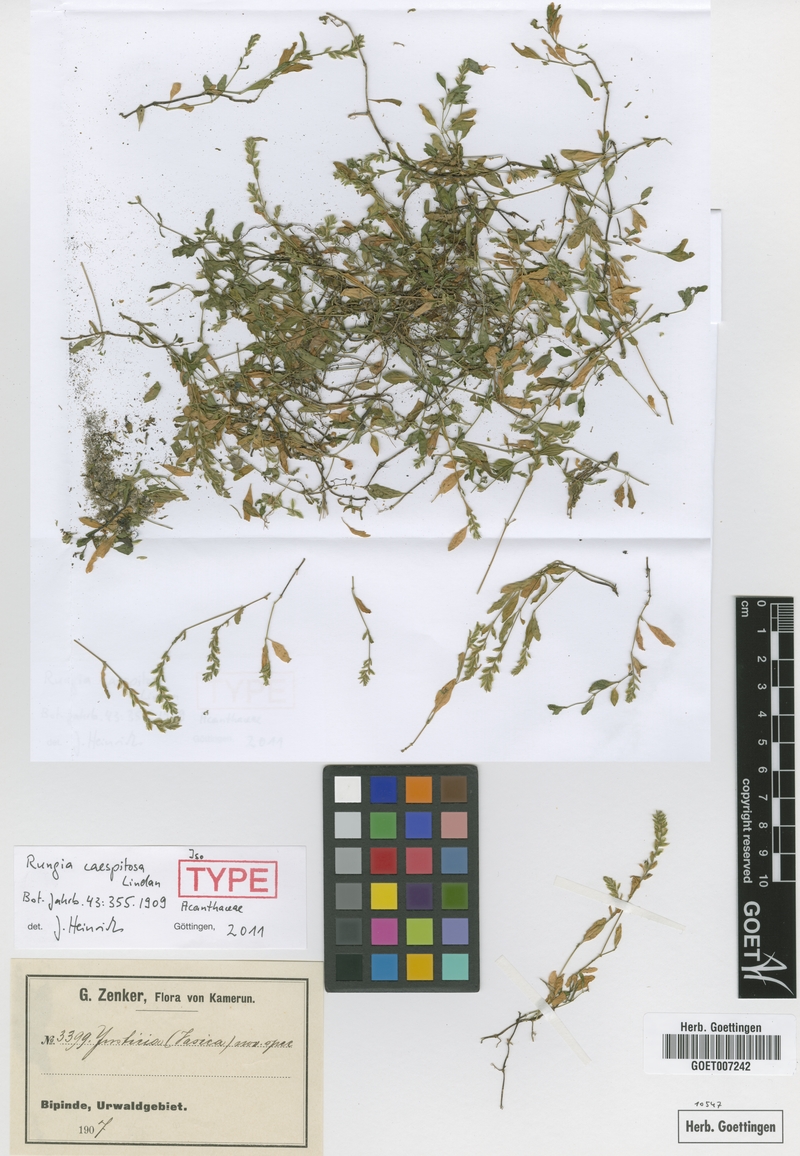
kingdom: Plantae
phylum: Tracheophyta
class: Magnoliopsida
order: Lamiales
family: Acanthaceae
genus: Rungia
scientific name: Rungia caespitosa
